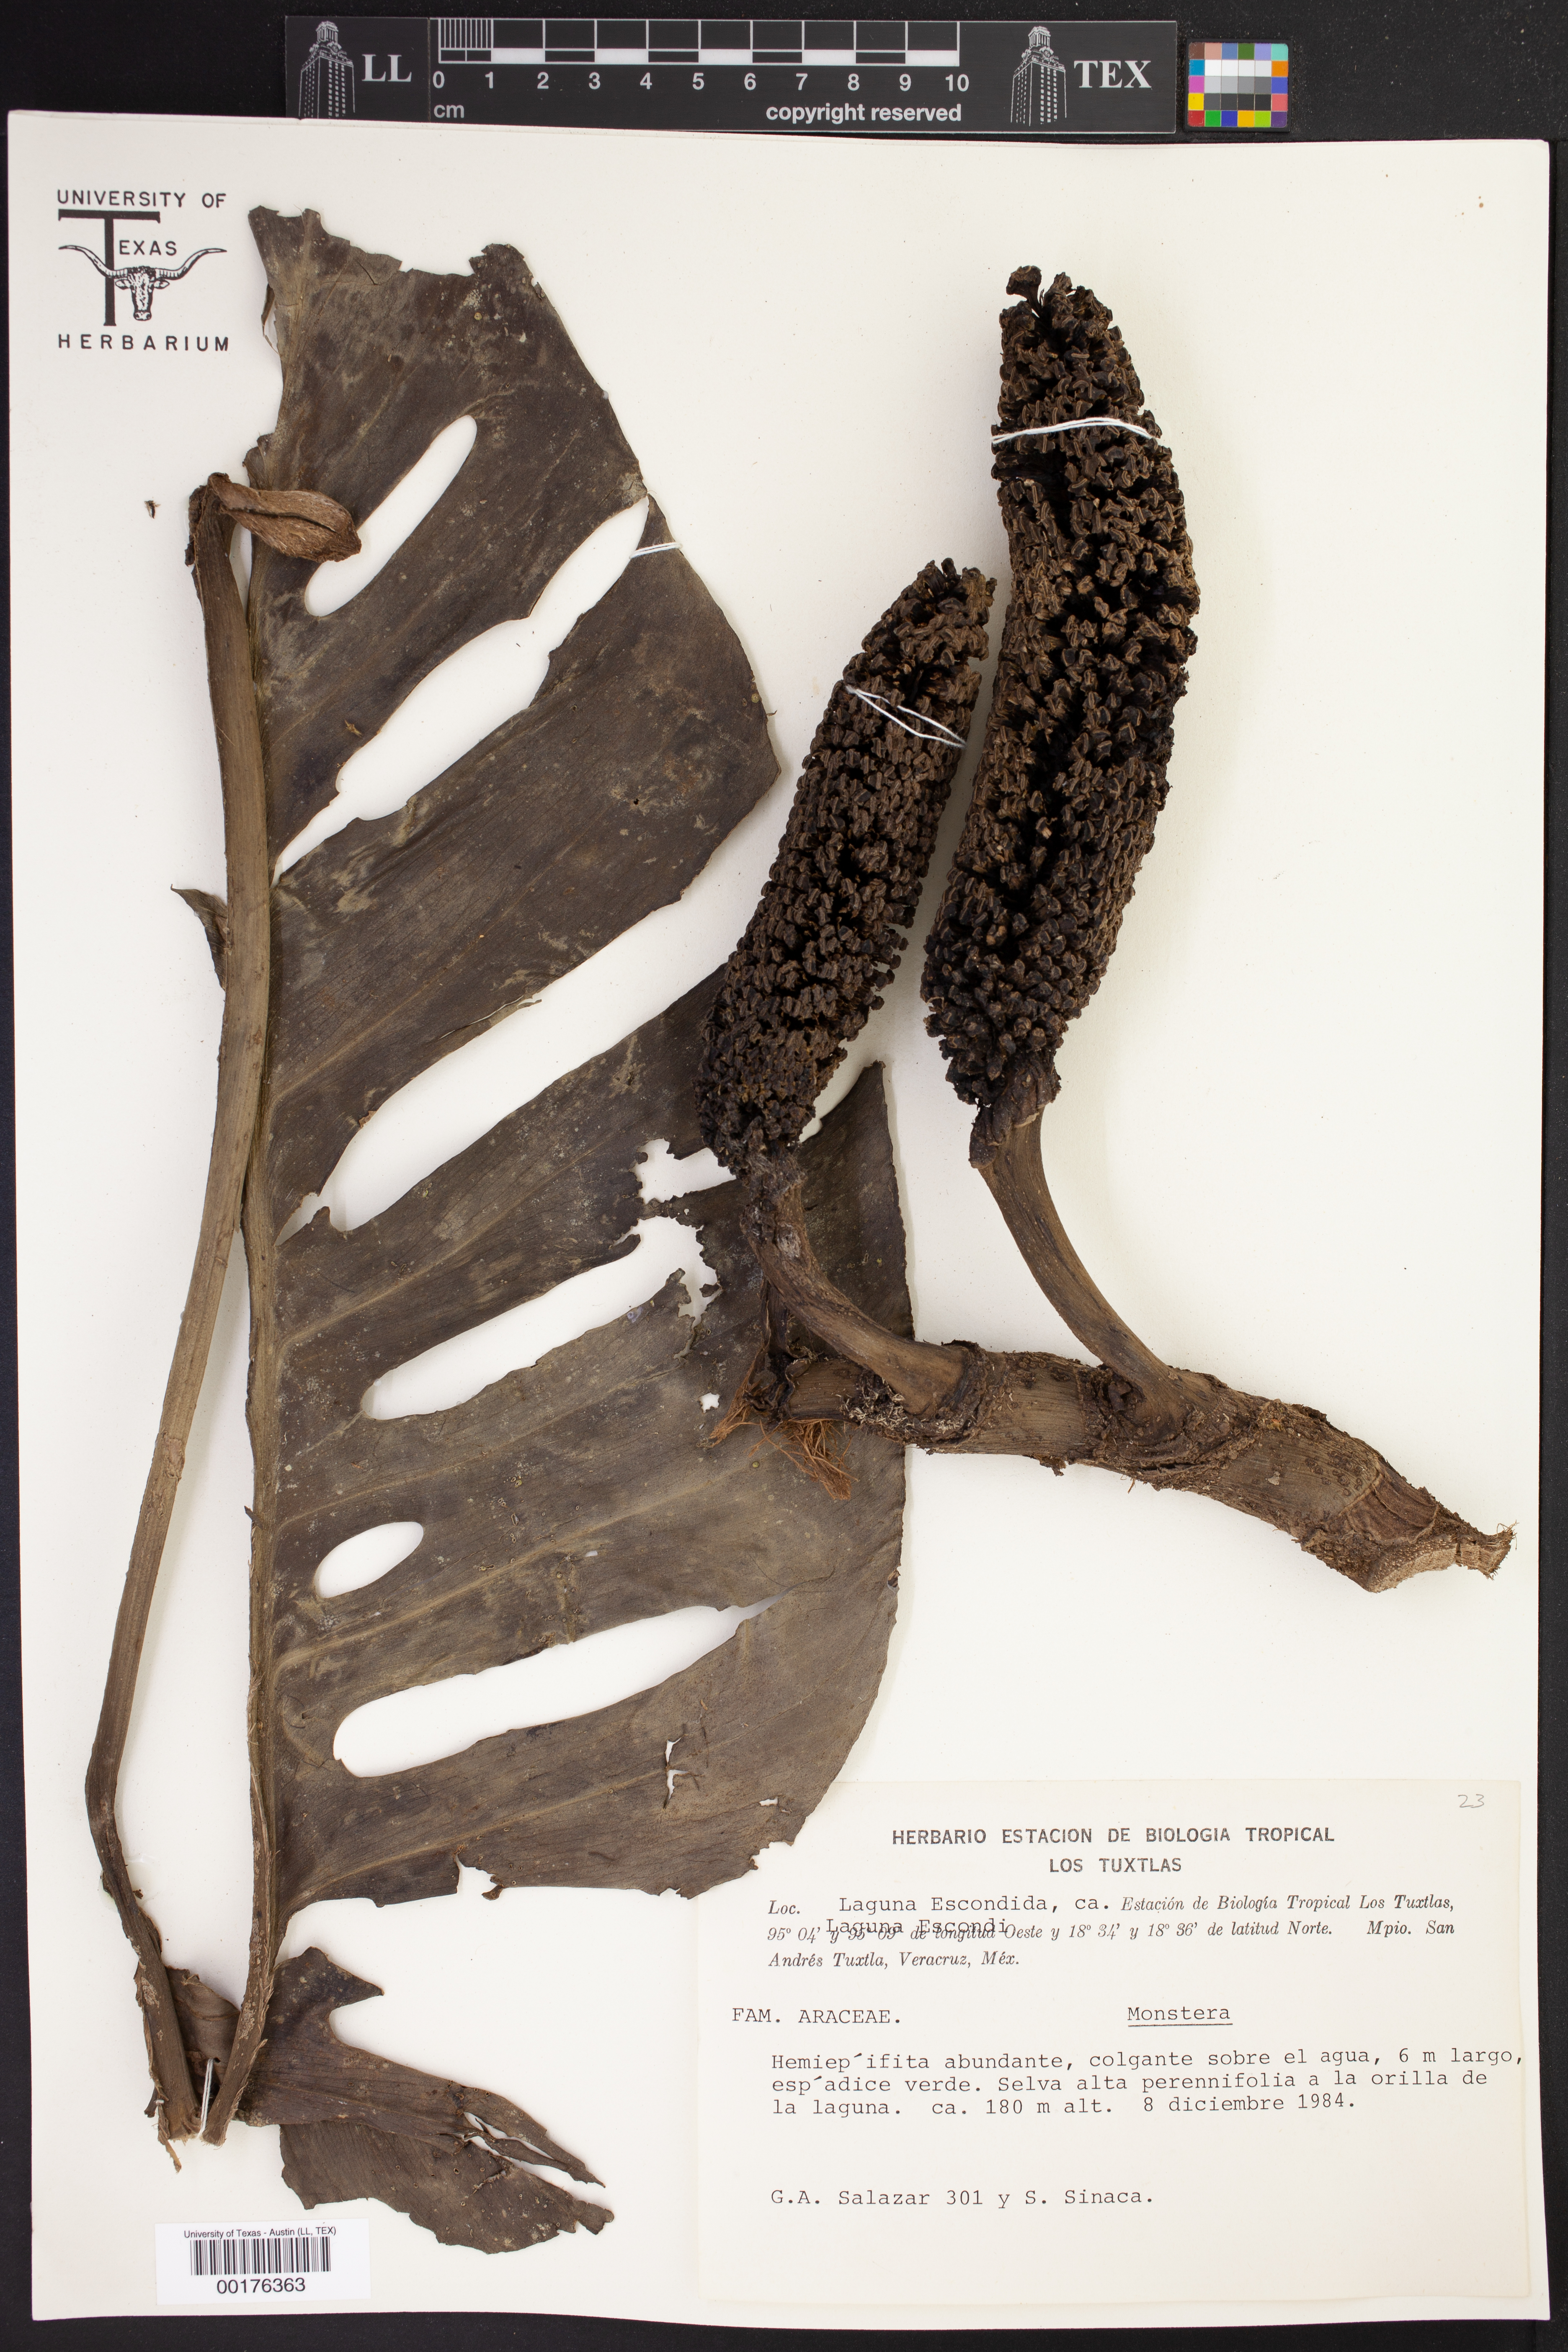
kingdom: Plantae
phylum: Tracheophyta
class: Liliopsida
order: Alismatales
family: Araceae
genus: Monstera
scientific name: Monstera
